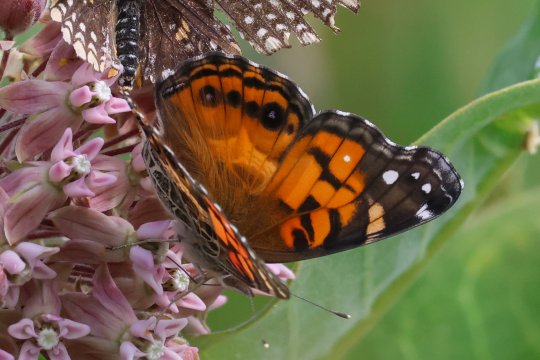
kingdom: Animalia
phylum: Arthropoda
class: Insecta
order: Lepidoptera
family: Nymphalidae
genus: Vanessa
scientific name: Vanessa virginiensis
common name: American Lady
